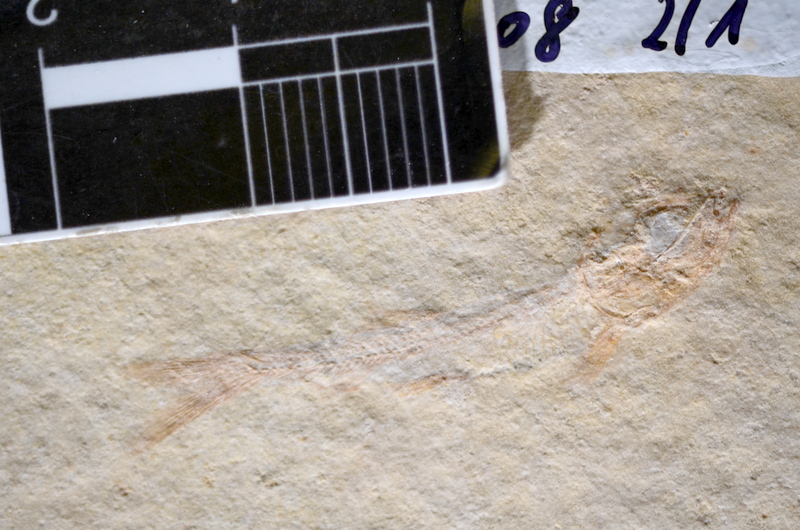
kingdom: Animalia
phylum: Chordata
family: Ascalaboidae
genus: Tharsis
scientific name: Tharsis
